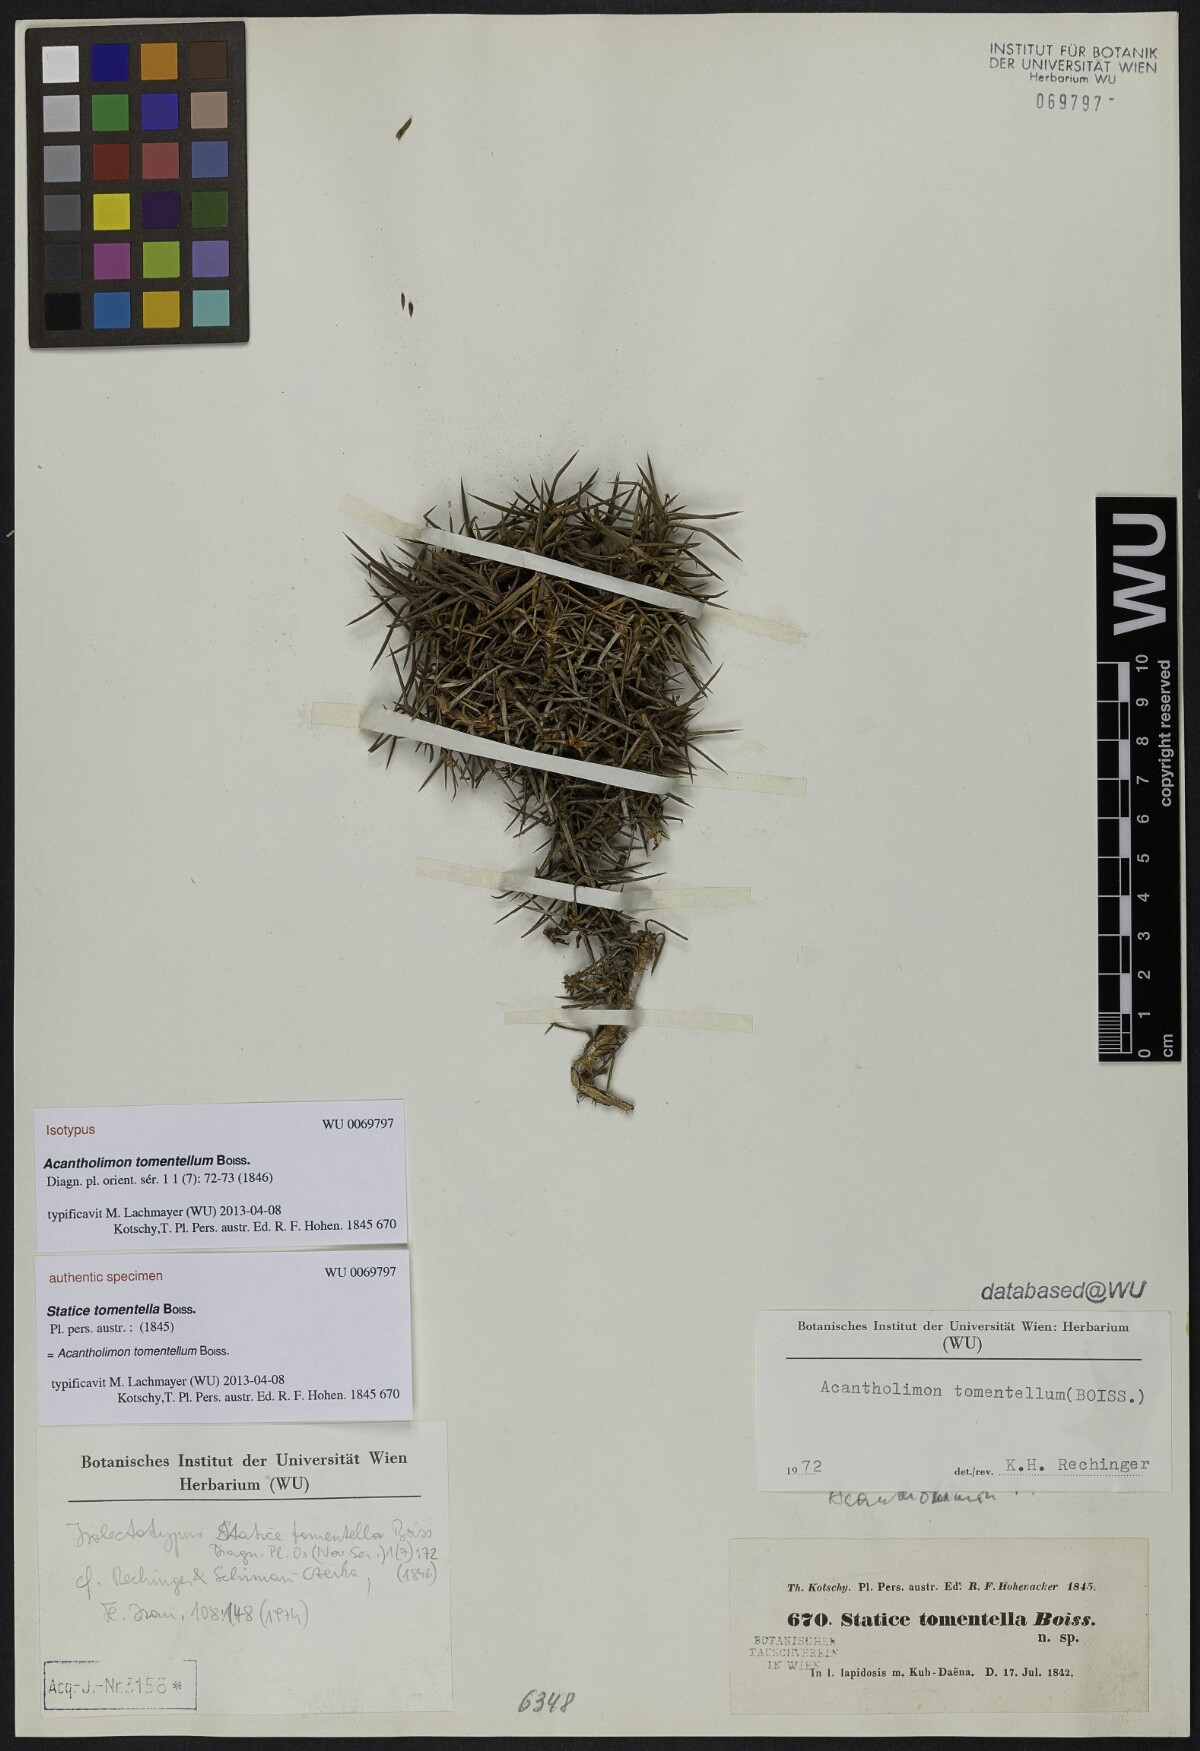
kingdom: Plantae
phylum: Tracheophyta
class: Magnoliopsida
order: Caryophyllales
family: Plumbaginaceae
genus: Acantholimon
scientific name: Acantholimon tomentellum
